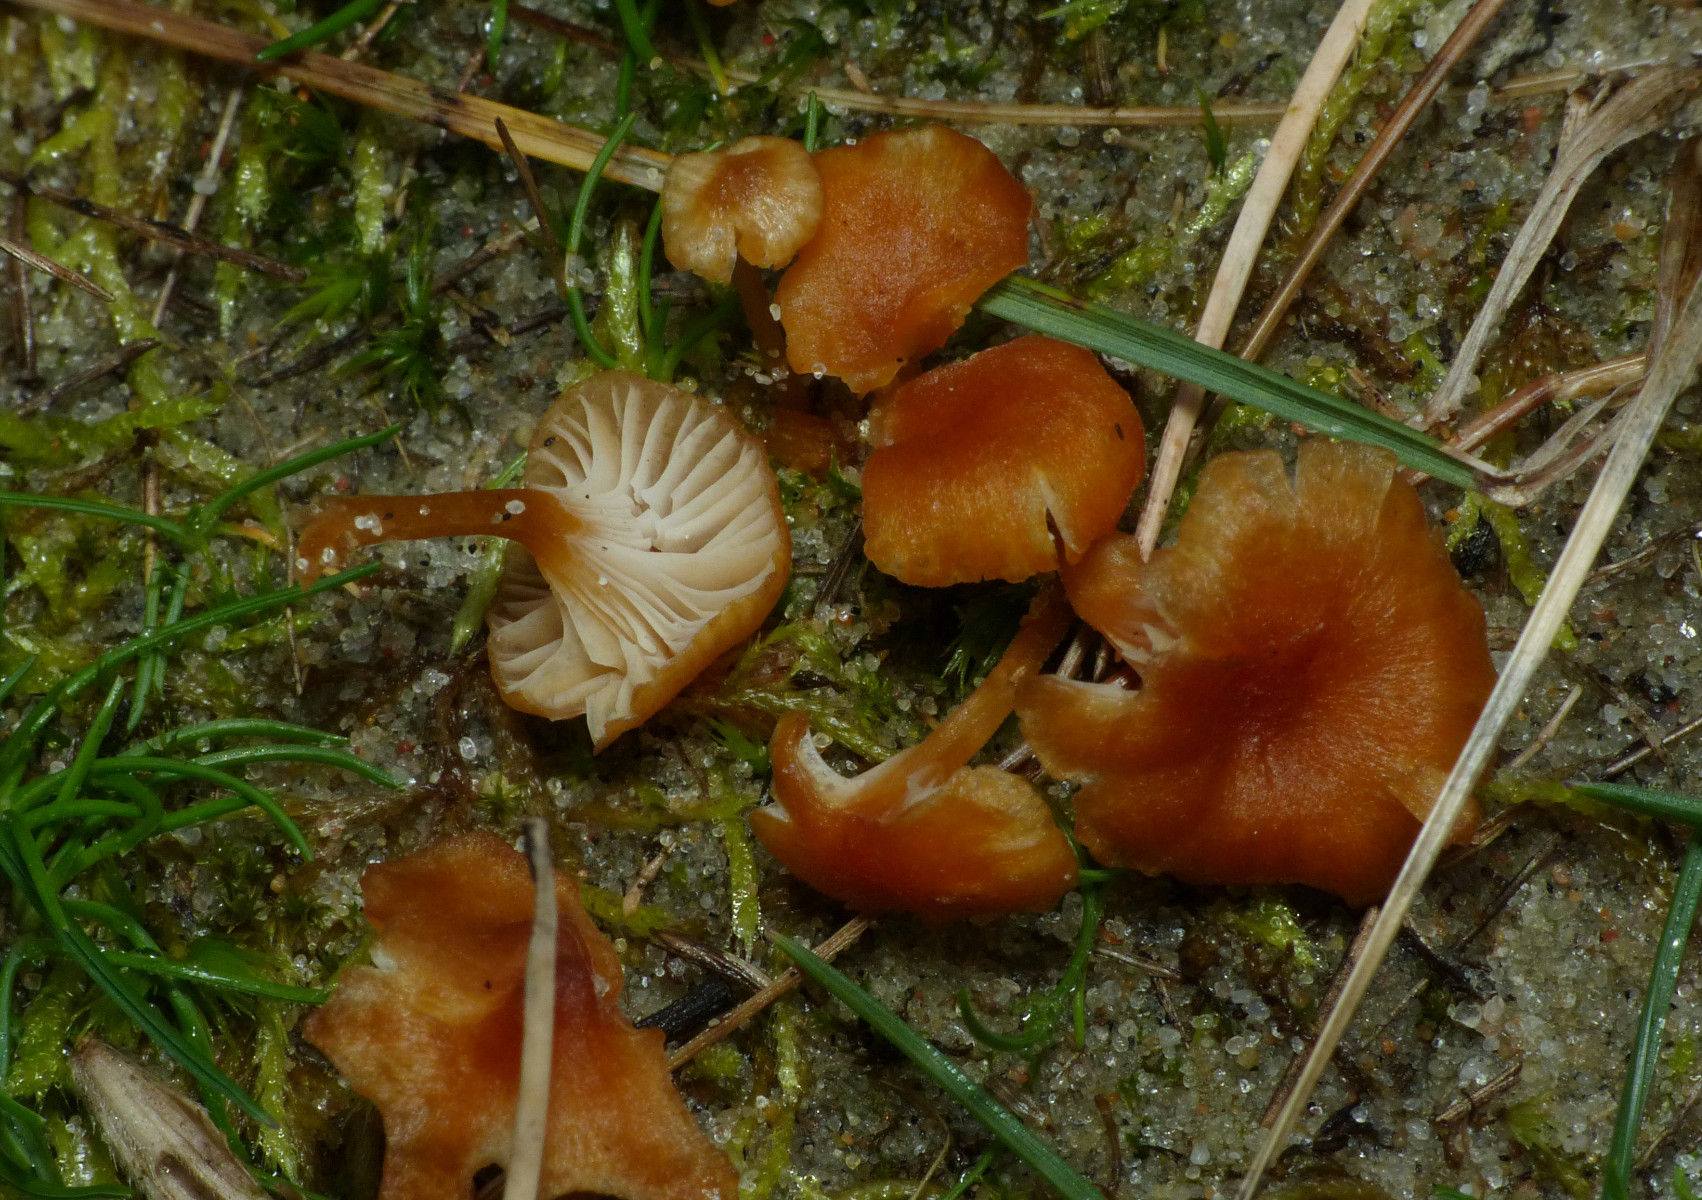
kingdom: Fungi
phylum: Basidiomycota
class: Agaricomycetes
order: Hymenochaetales
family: Rickenellaceae
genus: Rickenella
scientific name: Rickenella fibula
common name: orange mosnavlehat
